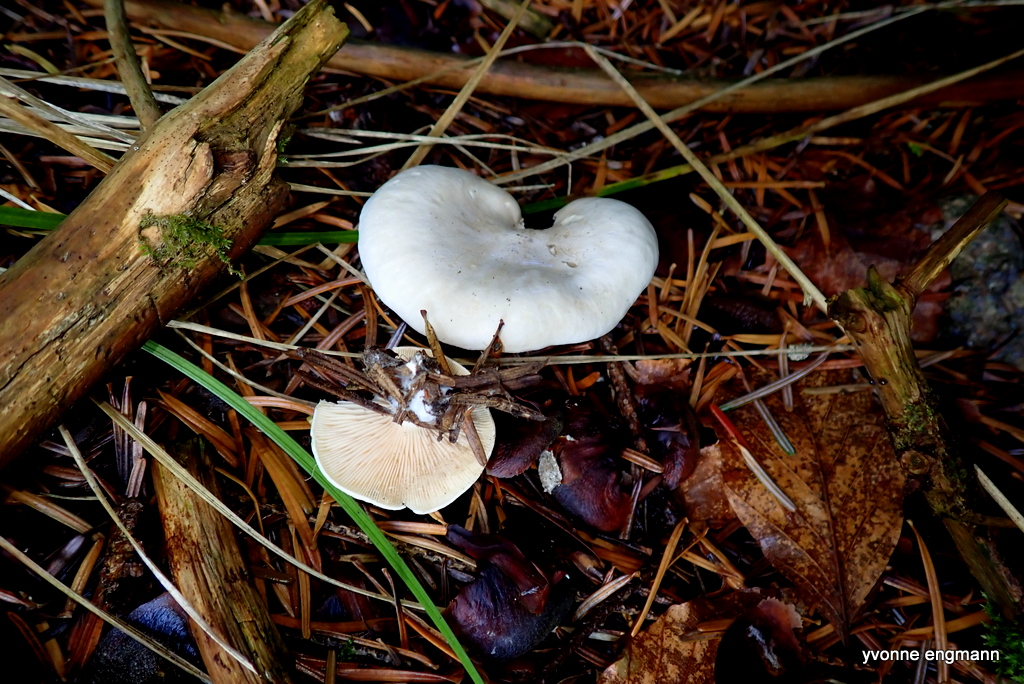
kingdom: Fungi
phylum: Basidiomycota
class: Agaricomycetes
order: Agaricales
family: Entolomataceae
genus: Clitopilus
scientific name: Clitopilus prunulus
